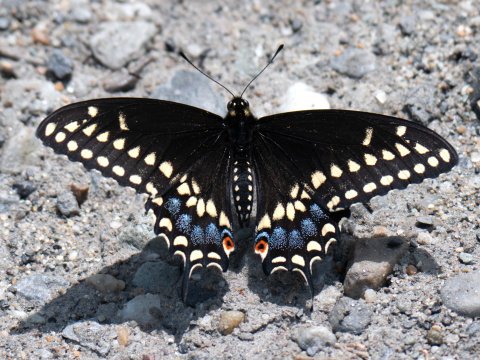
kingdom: Animalia
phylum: Arthropoda
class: Insecta
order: Lepidoptera
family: Papilionidae
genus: Papilio
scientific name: Papilio polyxenes
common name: Black Swallowtail
